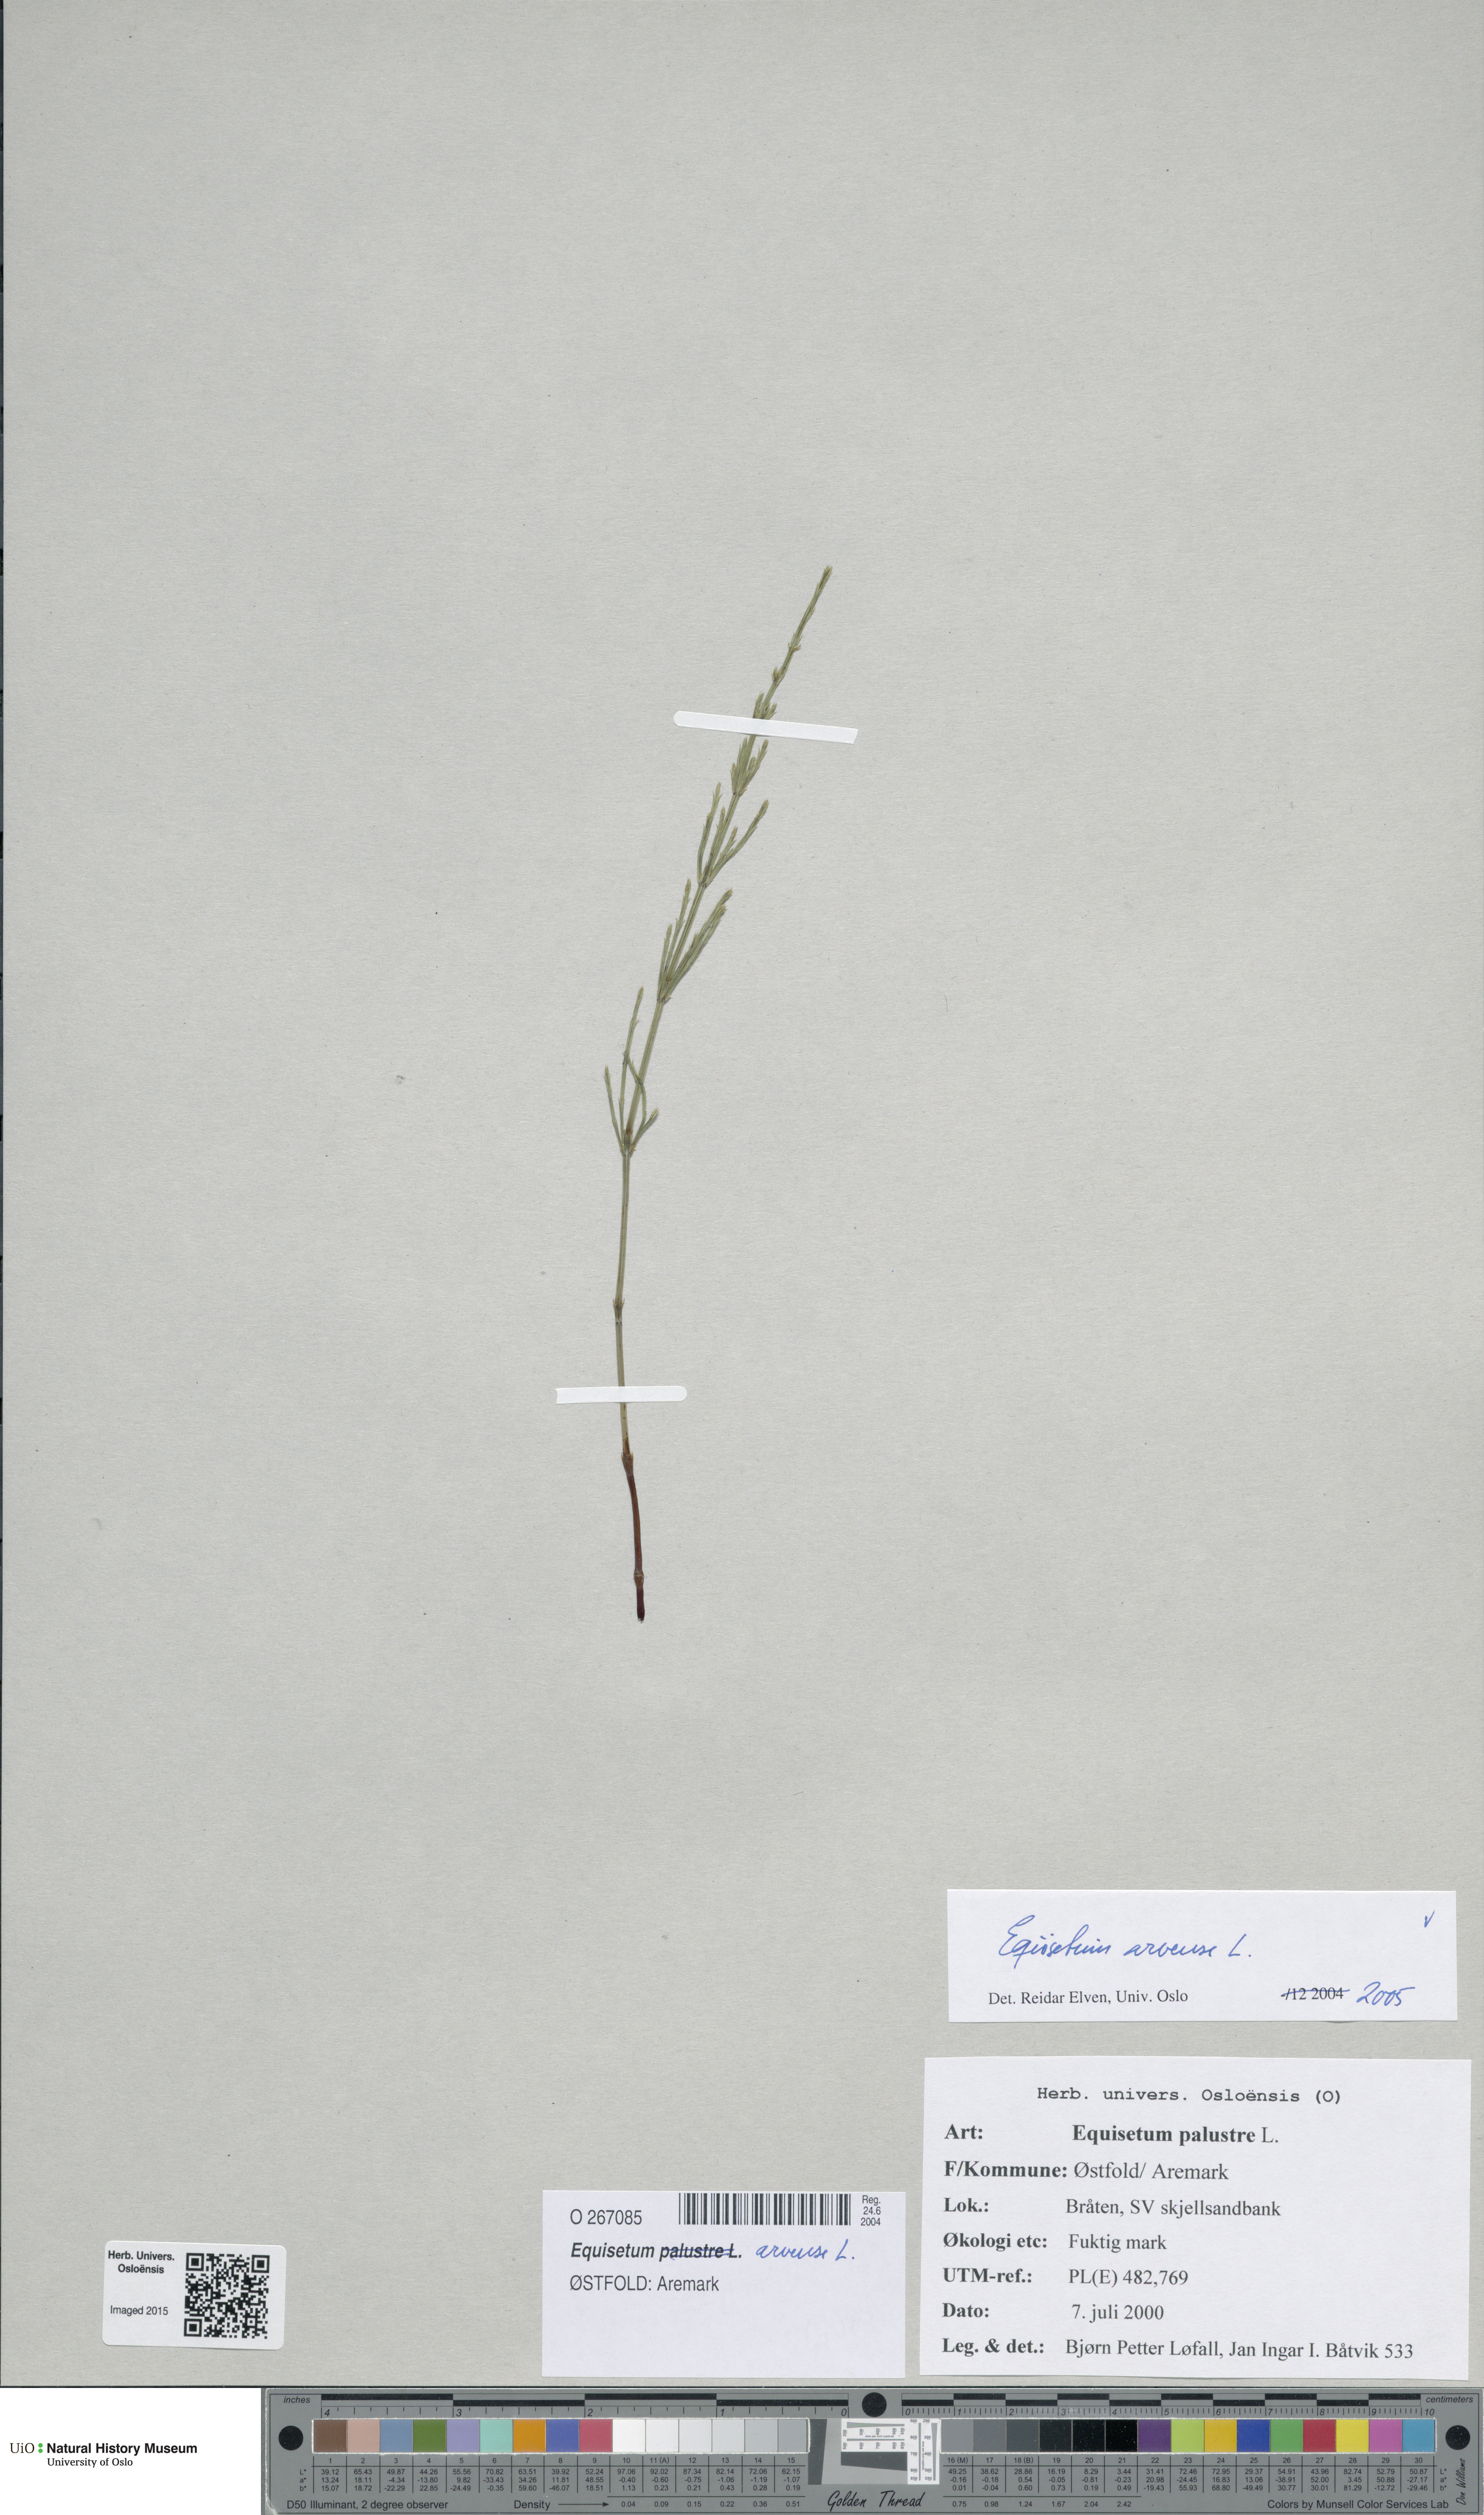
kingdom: Plantae
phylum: Tracheophyta
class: Polypodiopsida
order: Equisetales
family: Equisetaceae
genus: Equisetum
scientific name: Equisetum arvense
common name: Field horsetail
